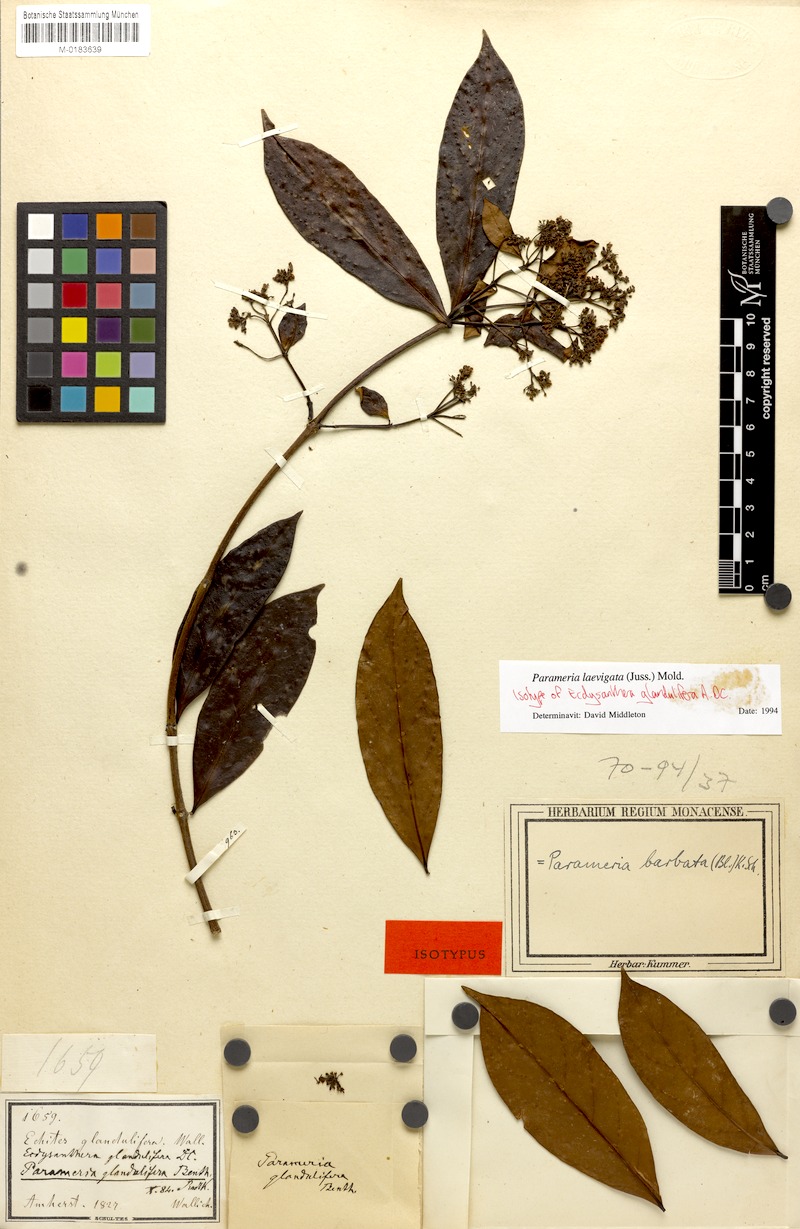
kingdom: Plantae
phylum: Tracheophyta
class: Magnoliopsida
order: Gentianales
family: Apocynaceae
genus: Urceola
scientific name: Urceola laevigata
